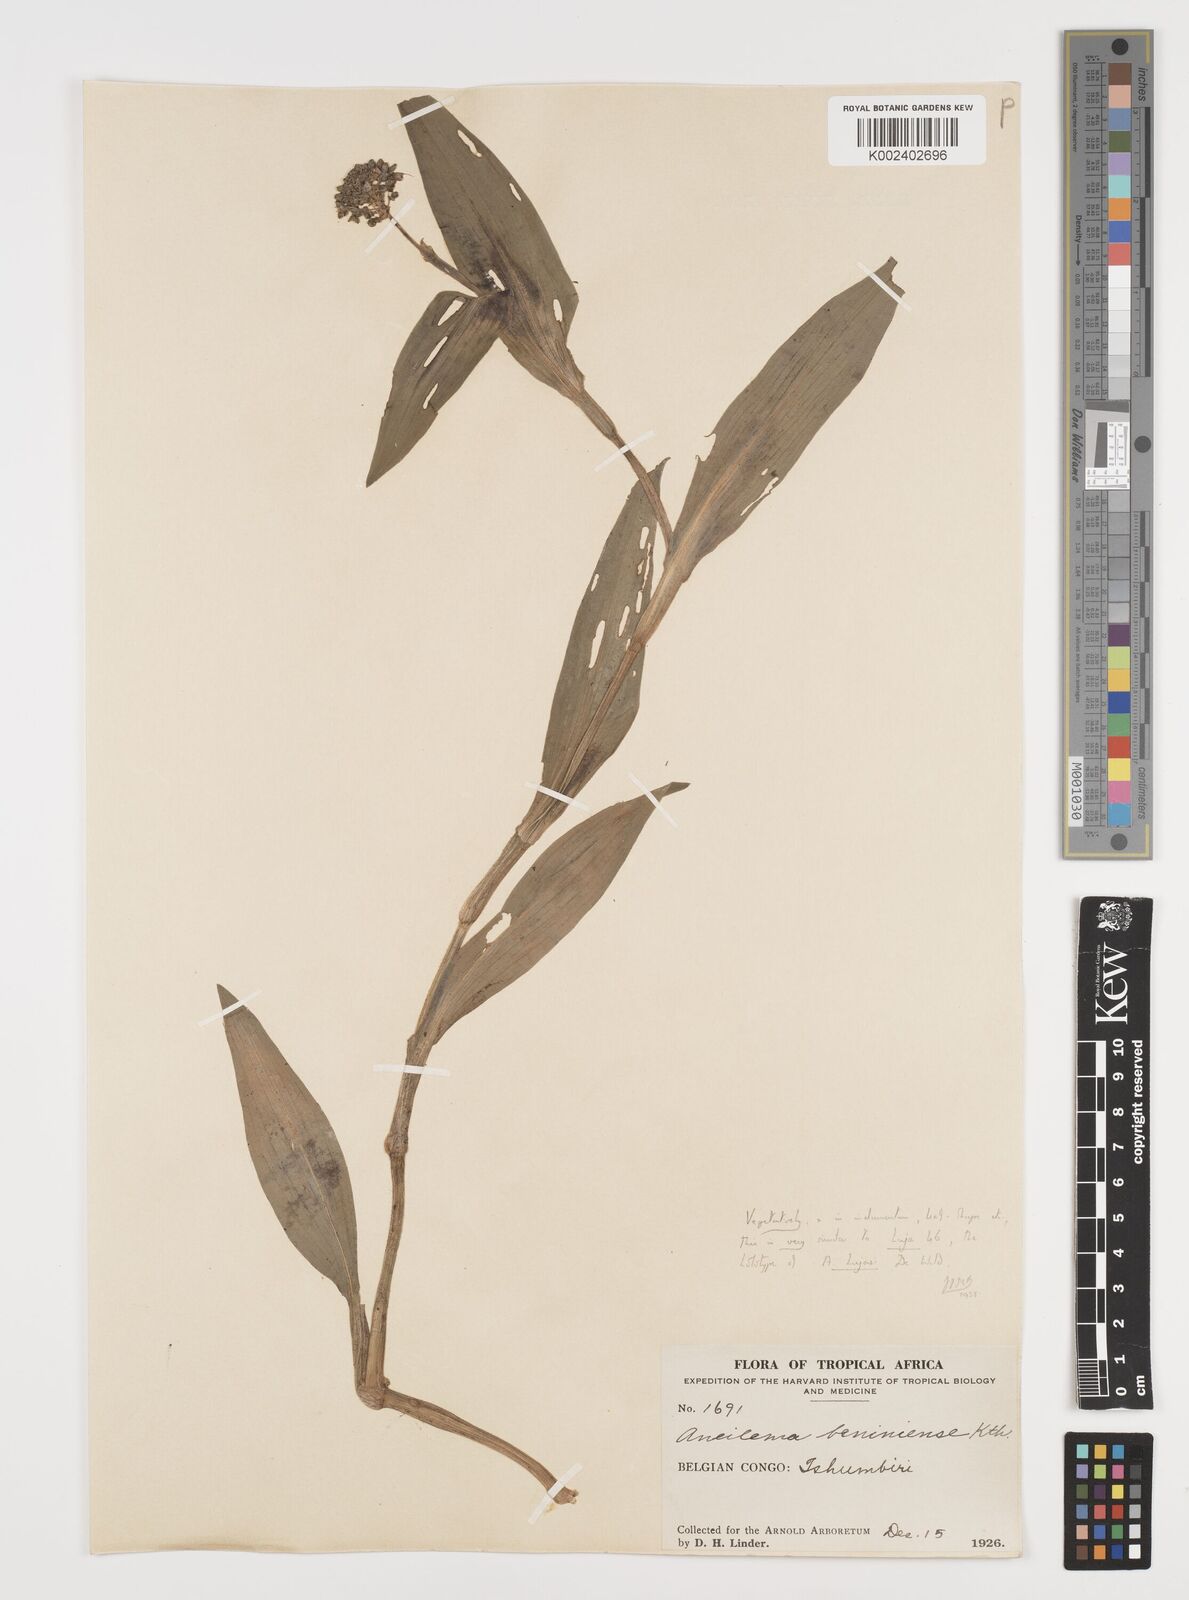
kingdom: Plantae
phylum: Tracheophyta
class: Liliopsida
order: Commelinales
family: Commelinaceae
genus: Aneilema
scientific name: Aneilema beniniense
